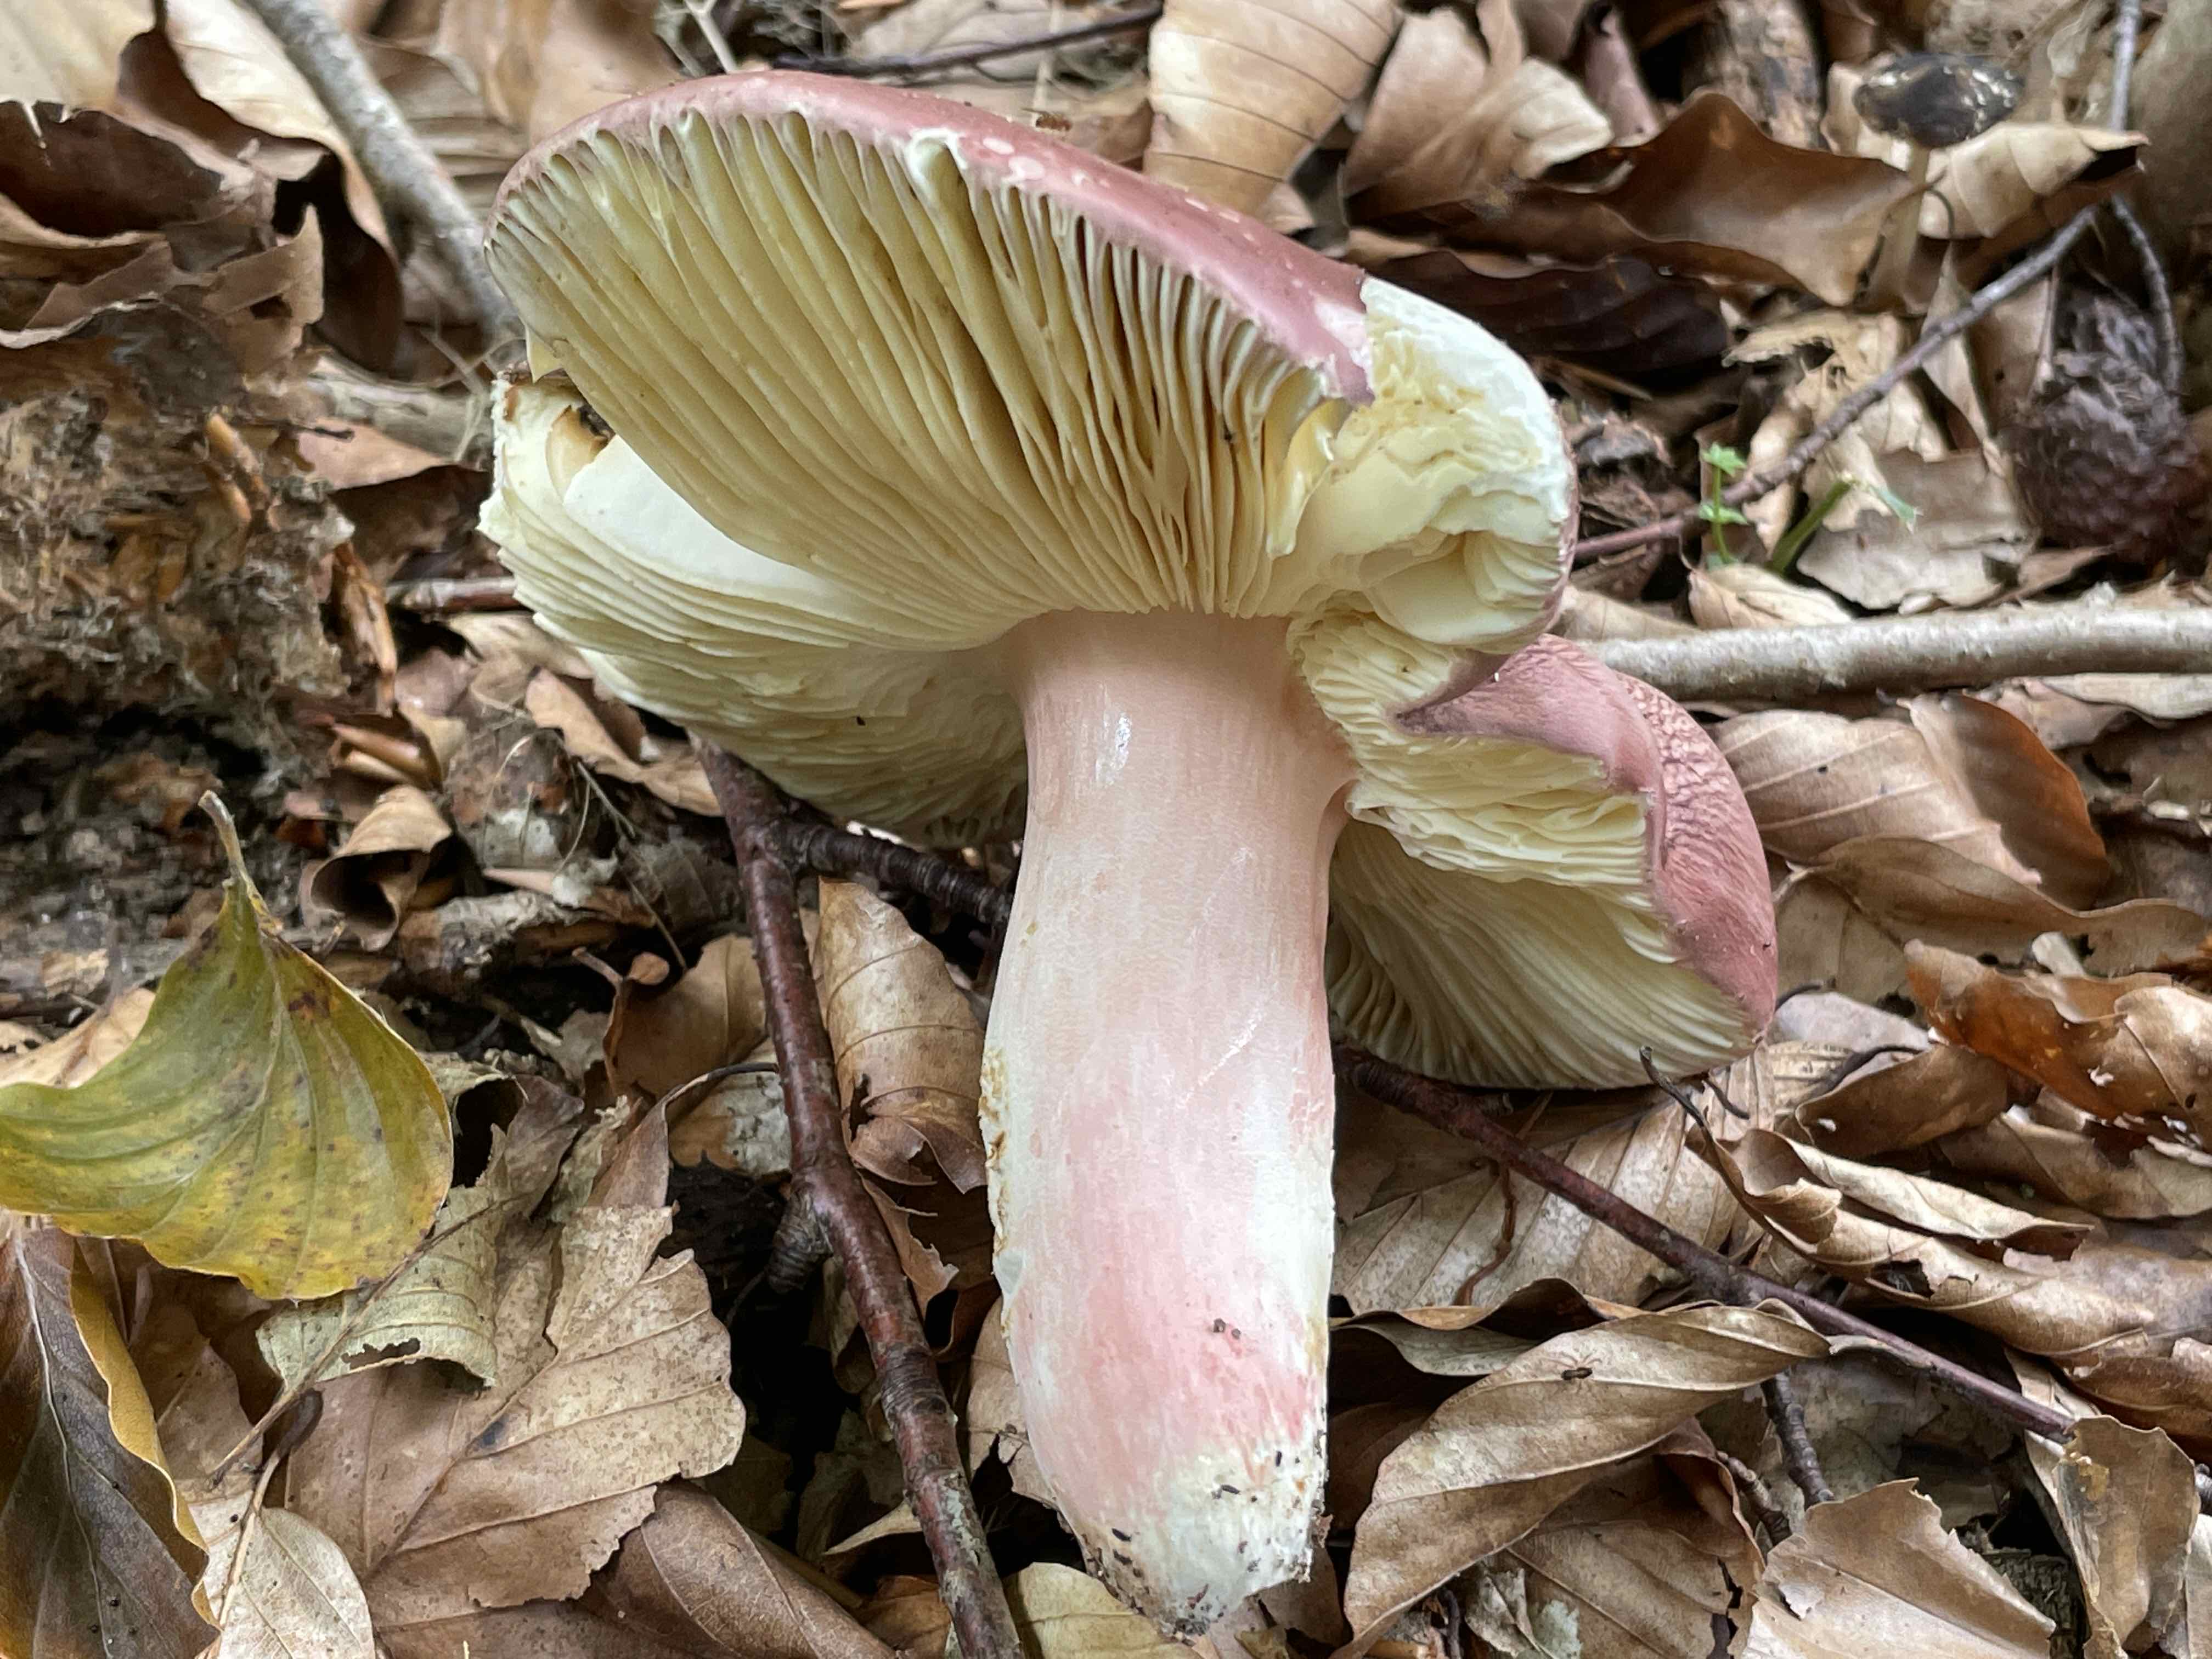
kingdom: Fungi
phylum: Basidiomycota
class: Agaricomycetes
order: Russulales
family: Russulaceae
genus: Russula
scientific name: Russula olivacea
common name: stor skørhat
